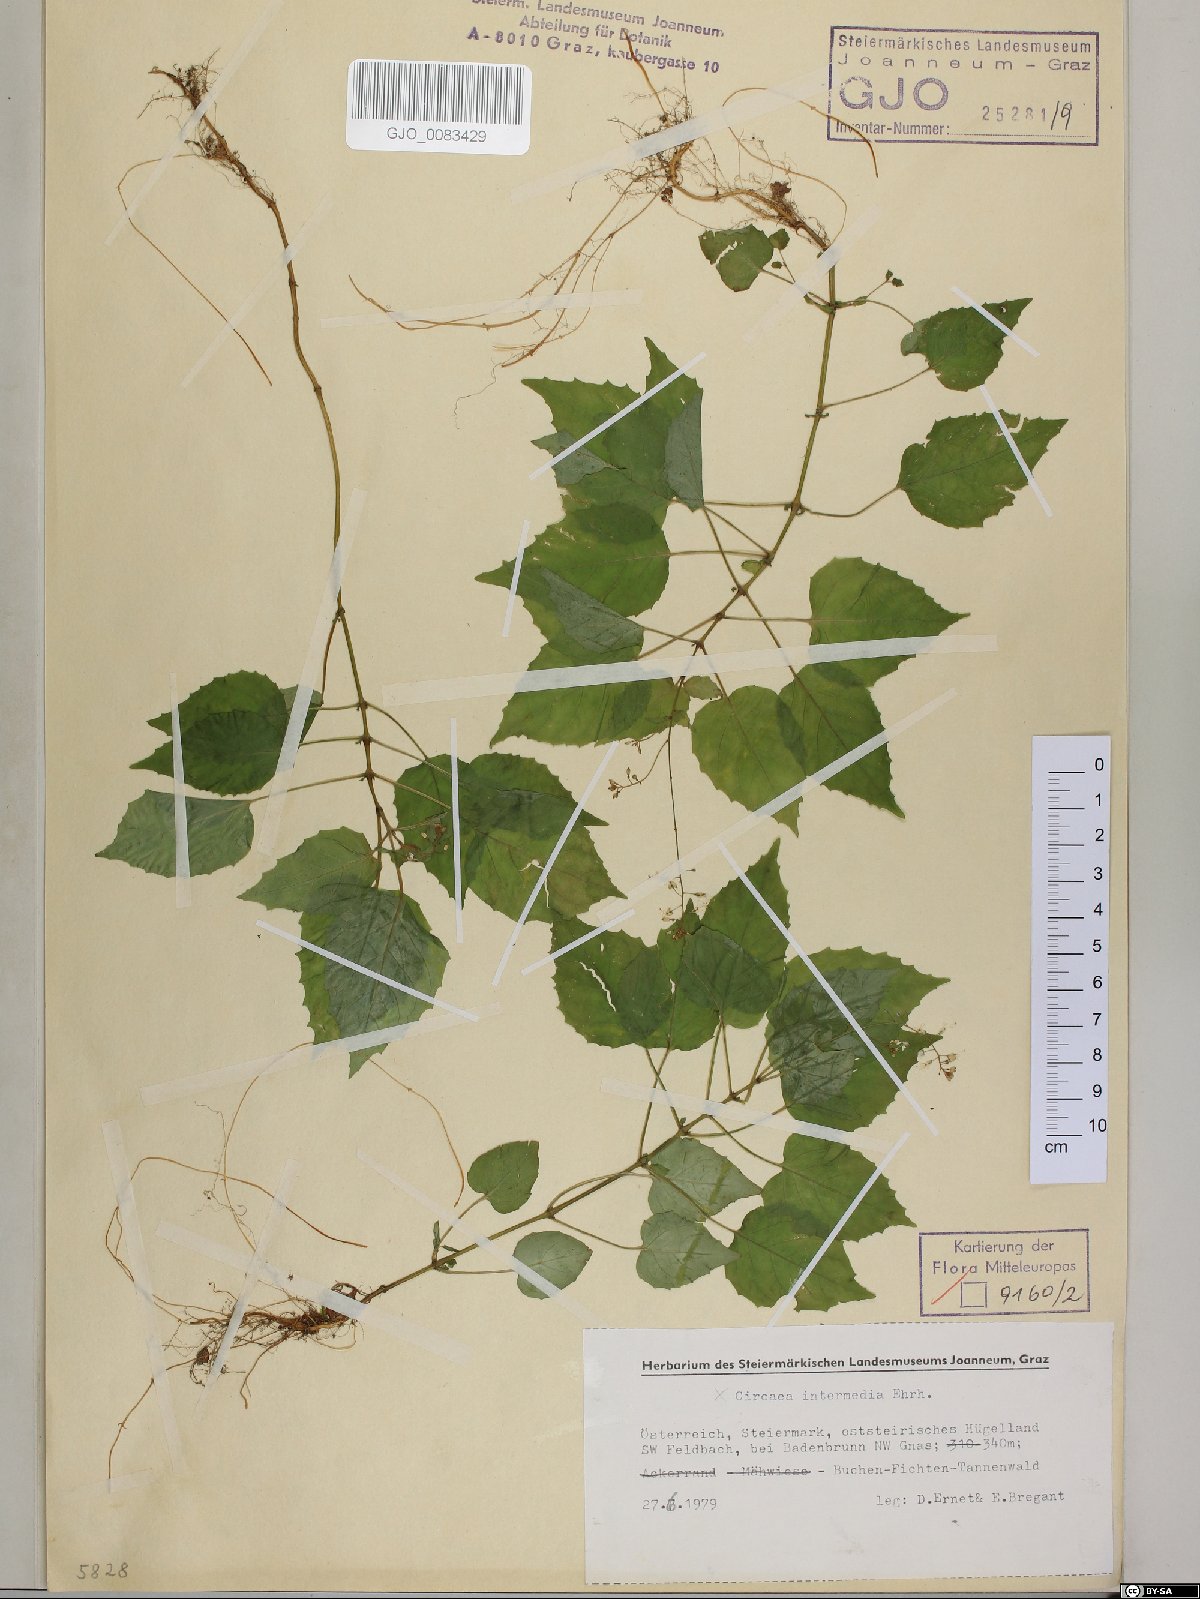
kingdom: Plantae
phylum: Tracheophyta
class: Magnoliopsida
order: Myrtales
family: Onagraceae
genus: Circaea
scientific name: Circaea intermedia
